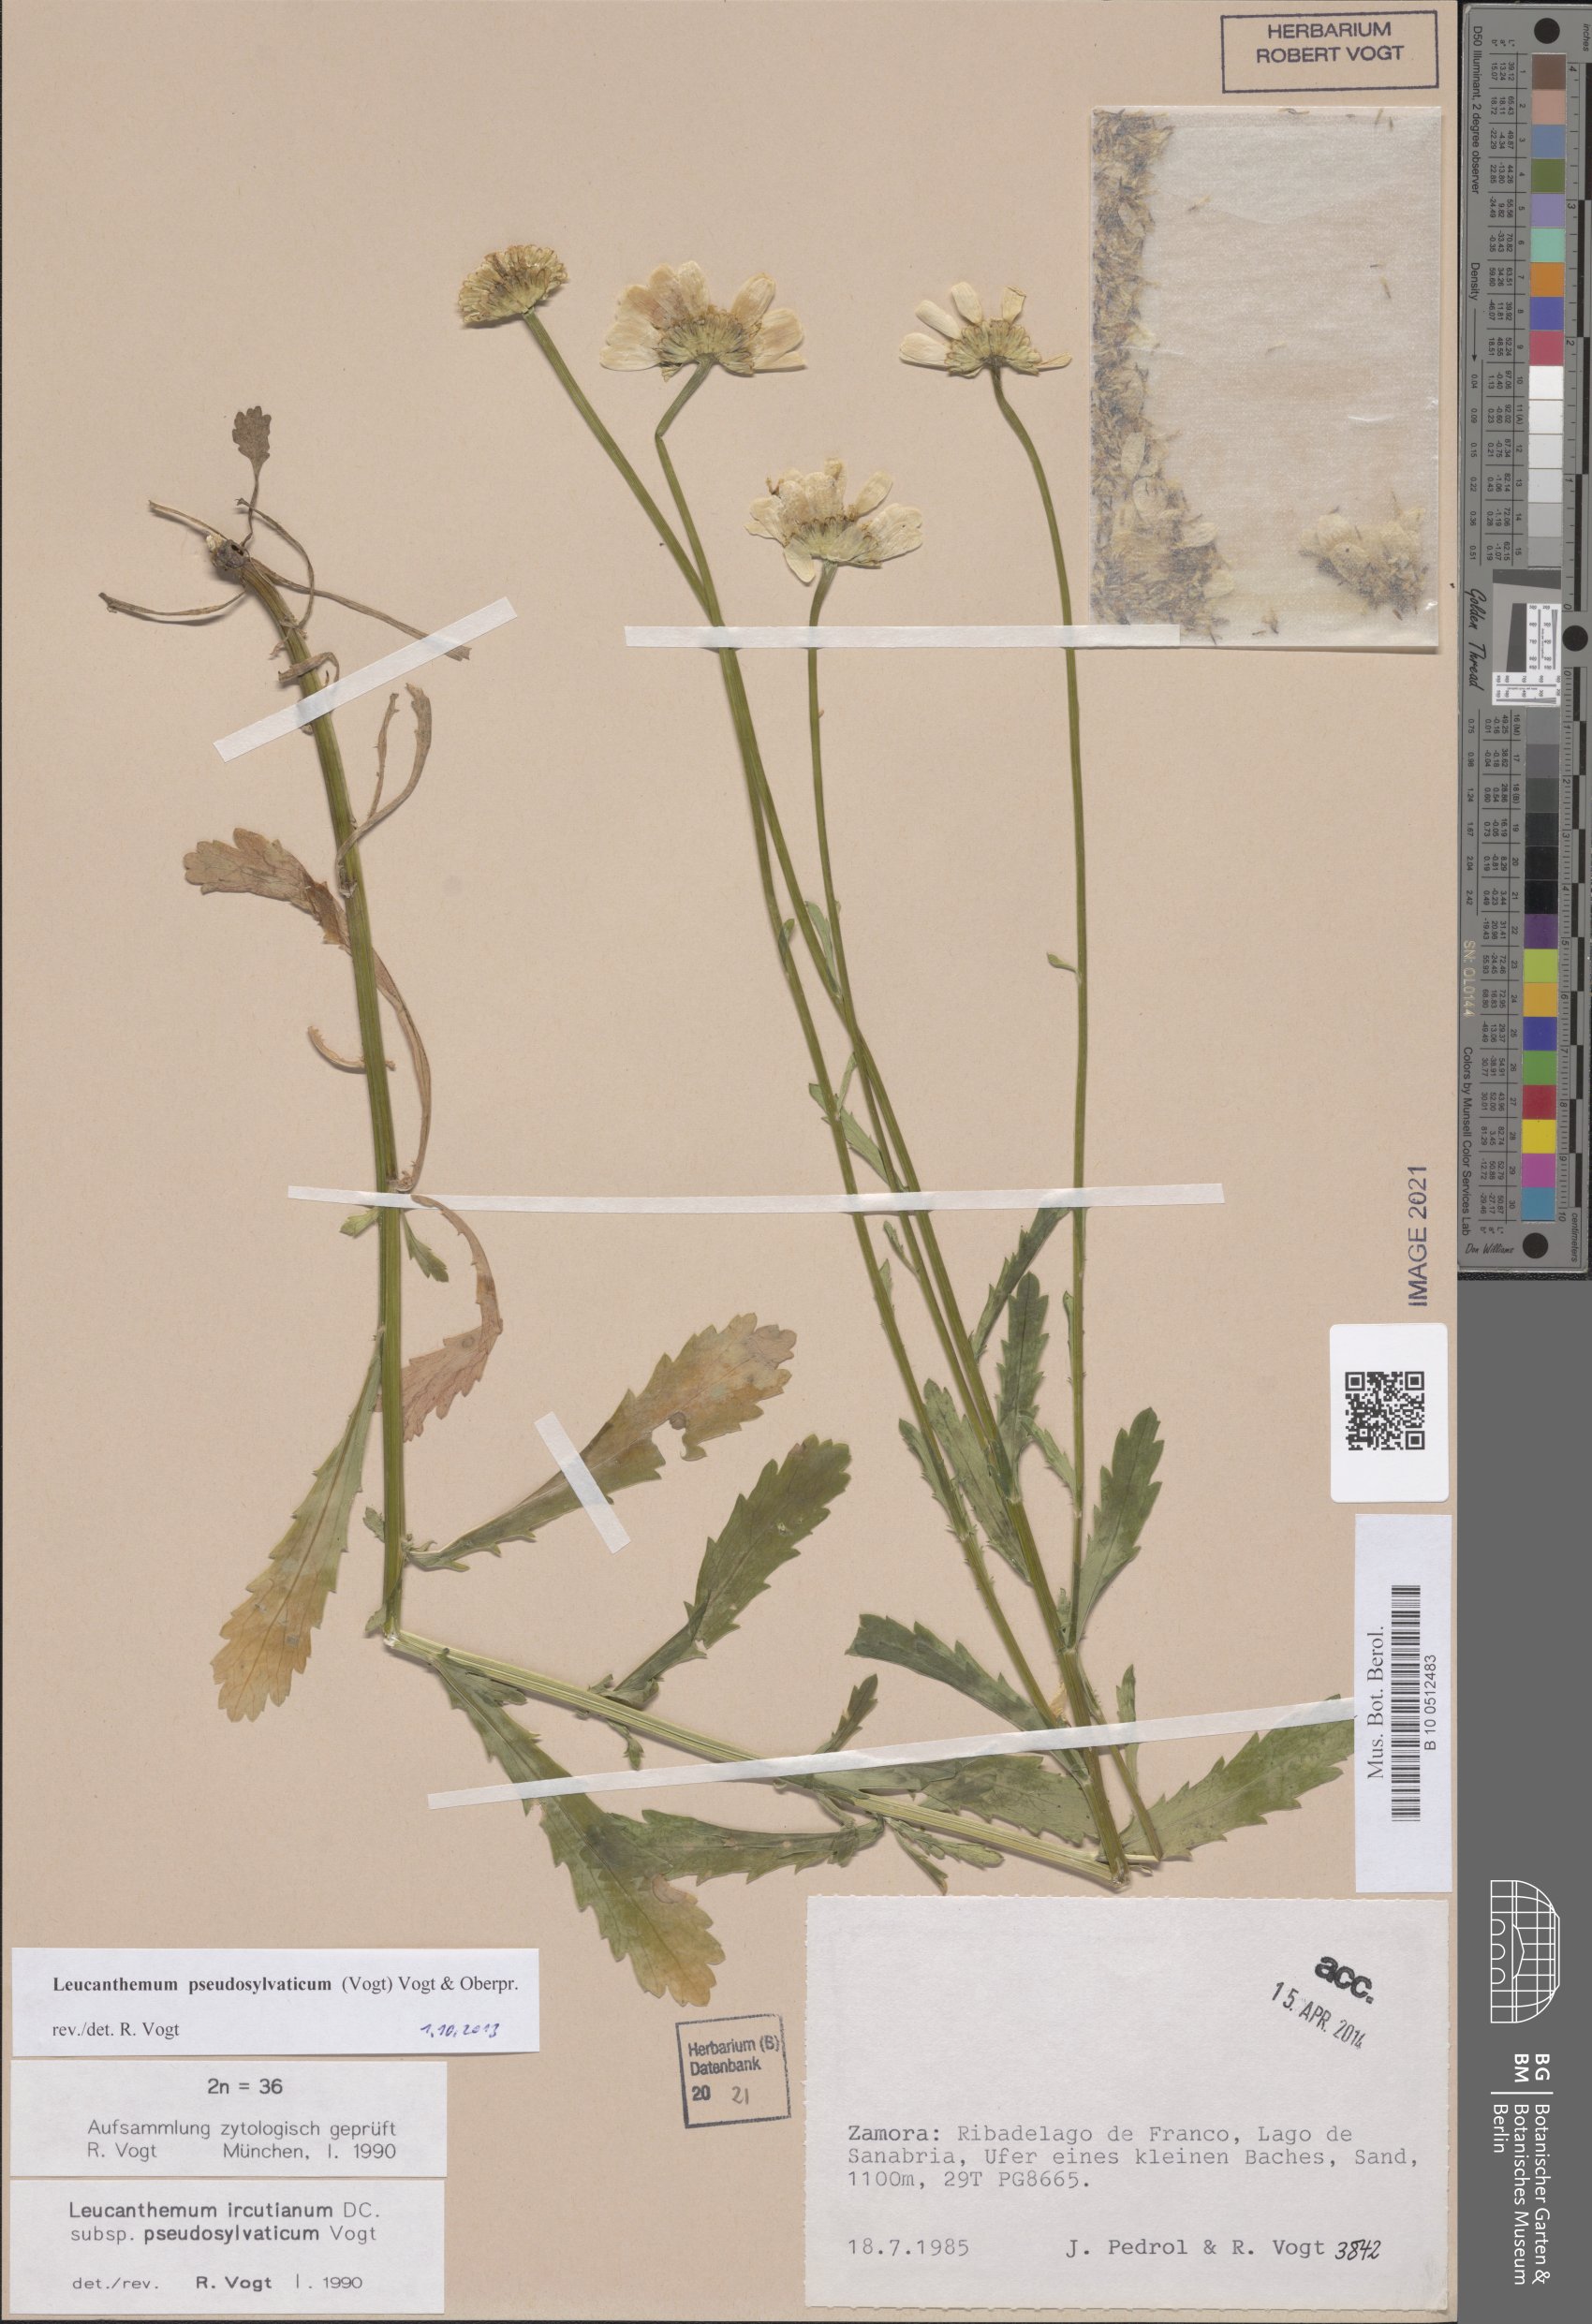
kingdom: Plantae
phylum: Tracheophyta
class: Magnoliopsida
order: Asterales
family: Asteraceae
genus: Leucanthemum
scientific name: Leucanthemum pseudosylvaticum
